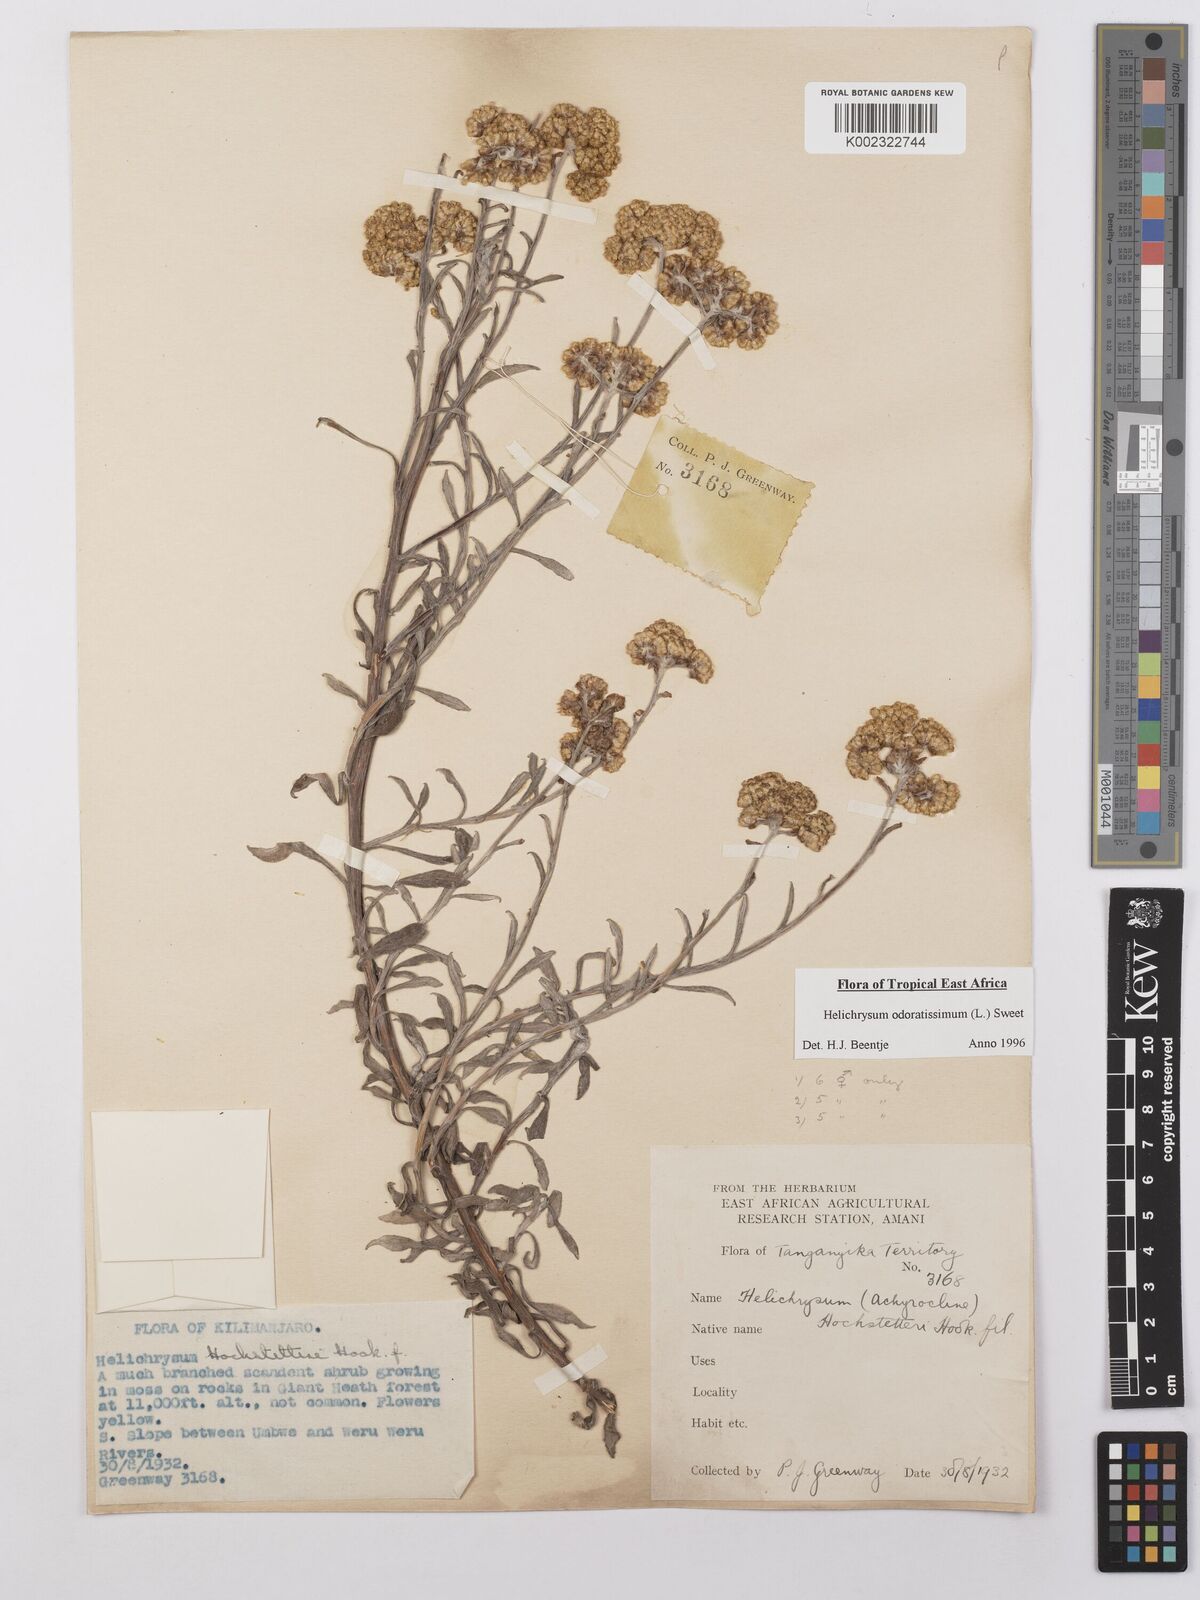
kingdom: Plantae
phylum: Tracheophyta
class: Magnoliopsida
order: Asterales
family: Asteraceae
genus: Helichrysum
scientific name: Helichrysum odoratissimum
